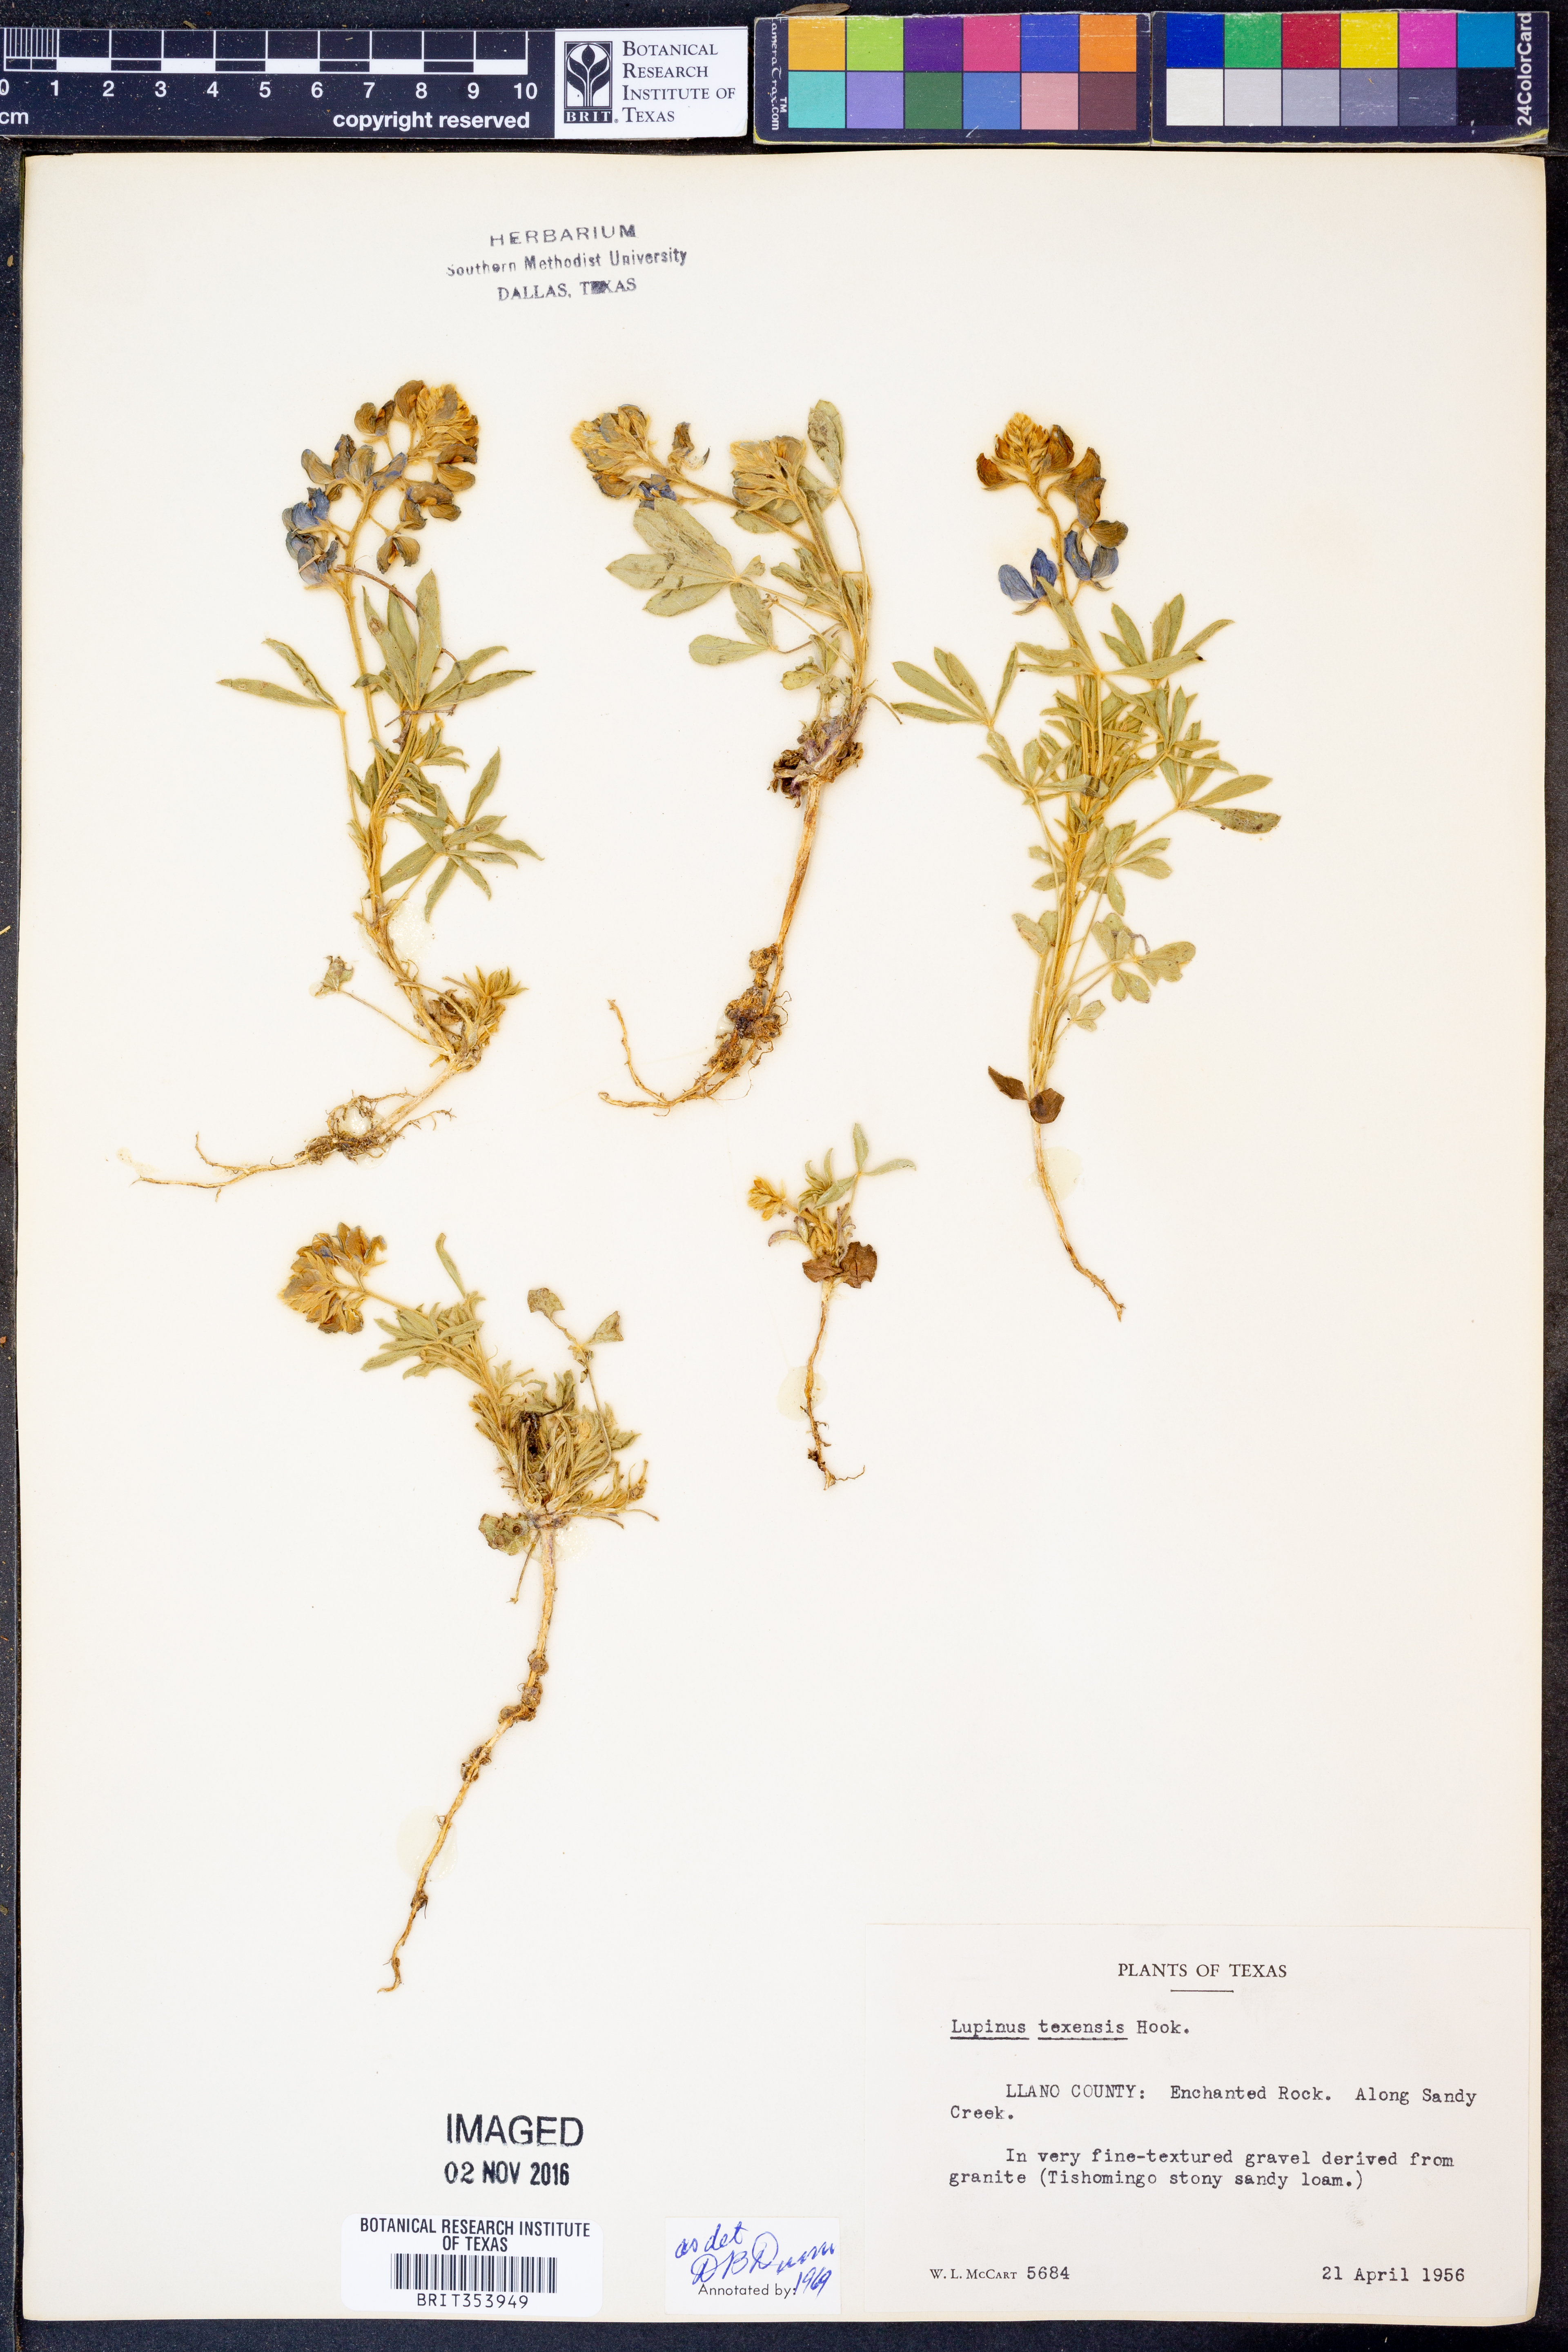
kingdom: Plantae
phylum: Tracheophyta
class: Magnoliopsida
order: Fabales
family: Fabaceae
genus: Lupinus
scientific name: Lupinus texensis
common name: Texas bluebonnet
